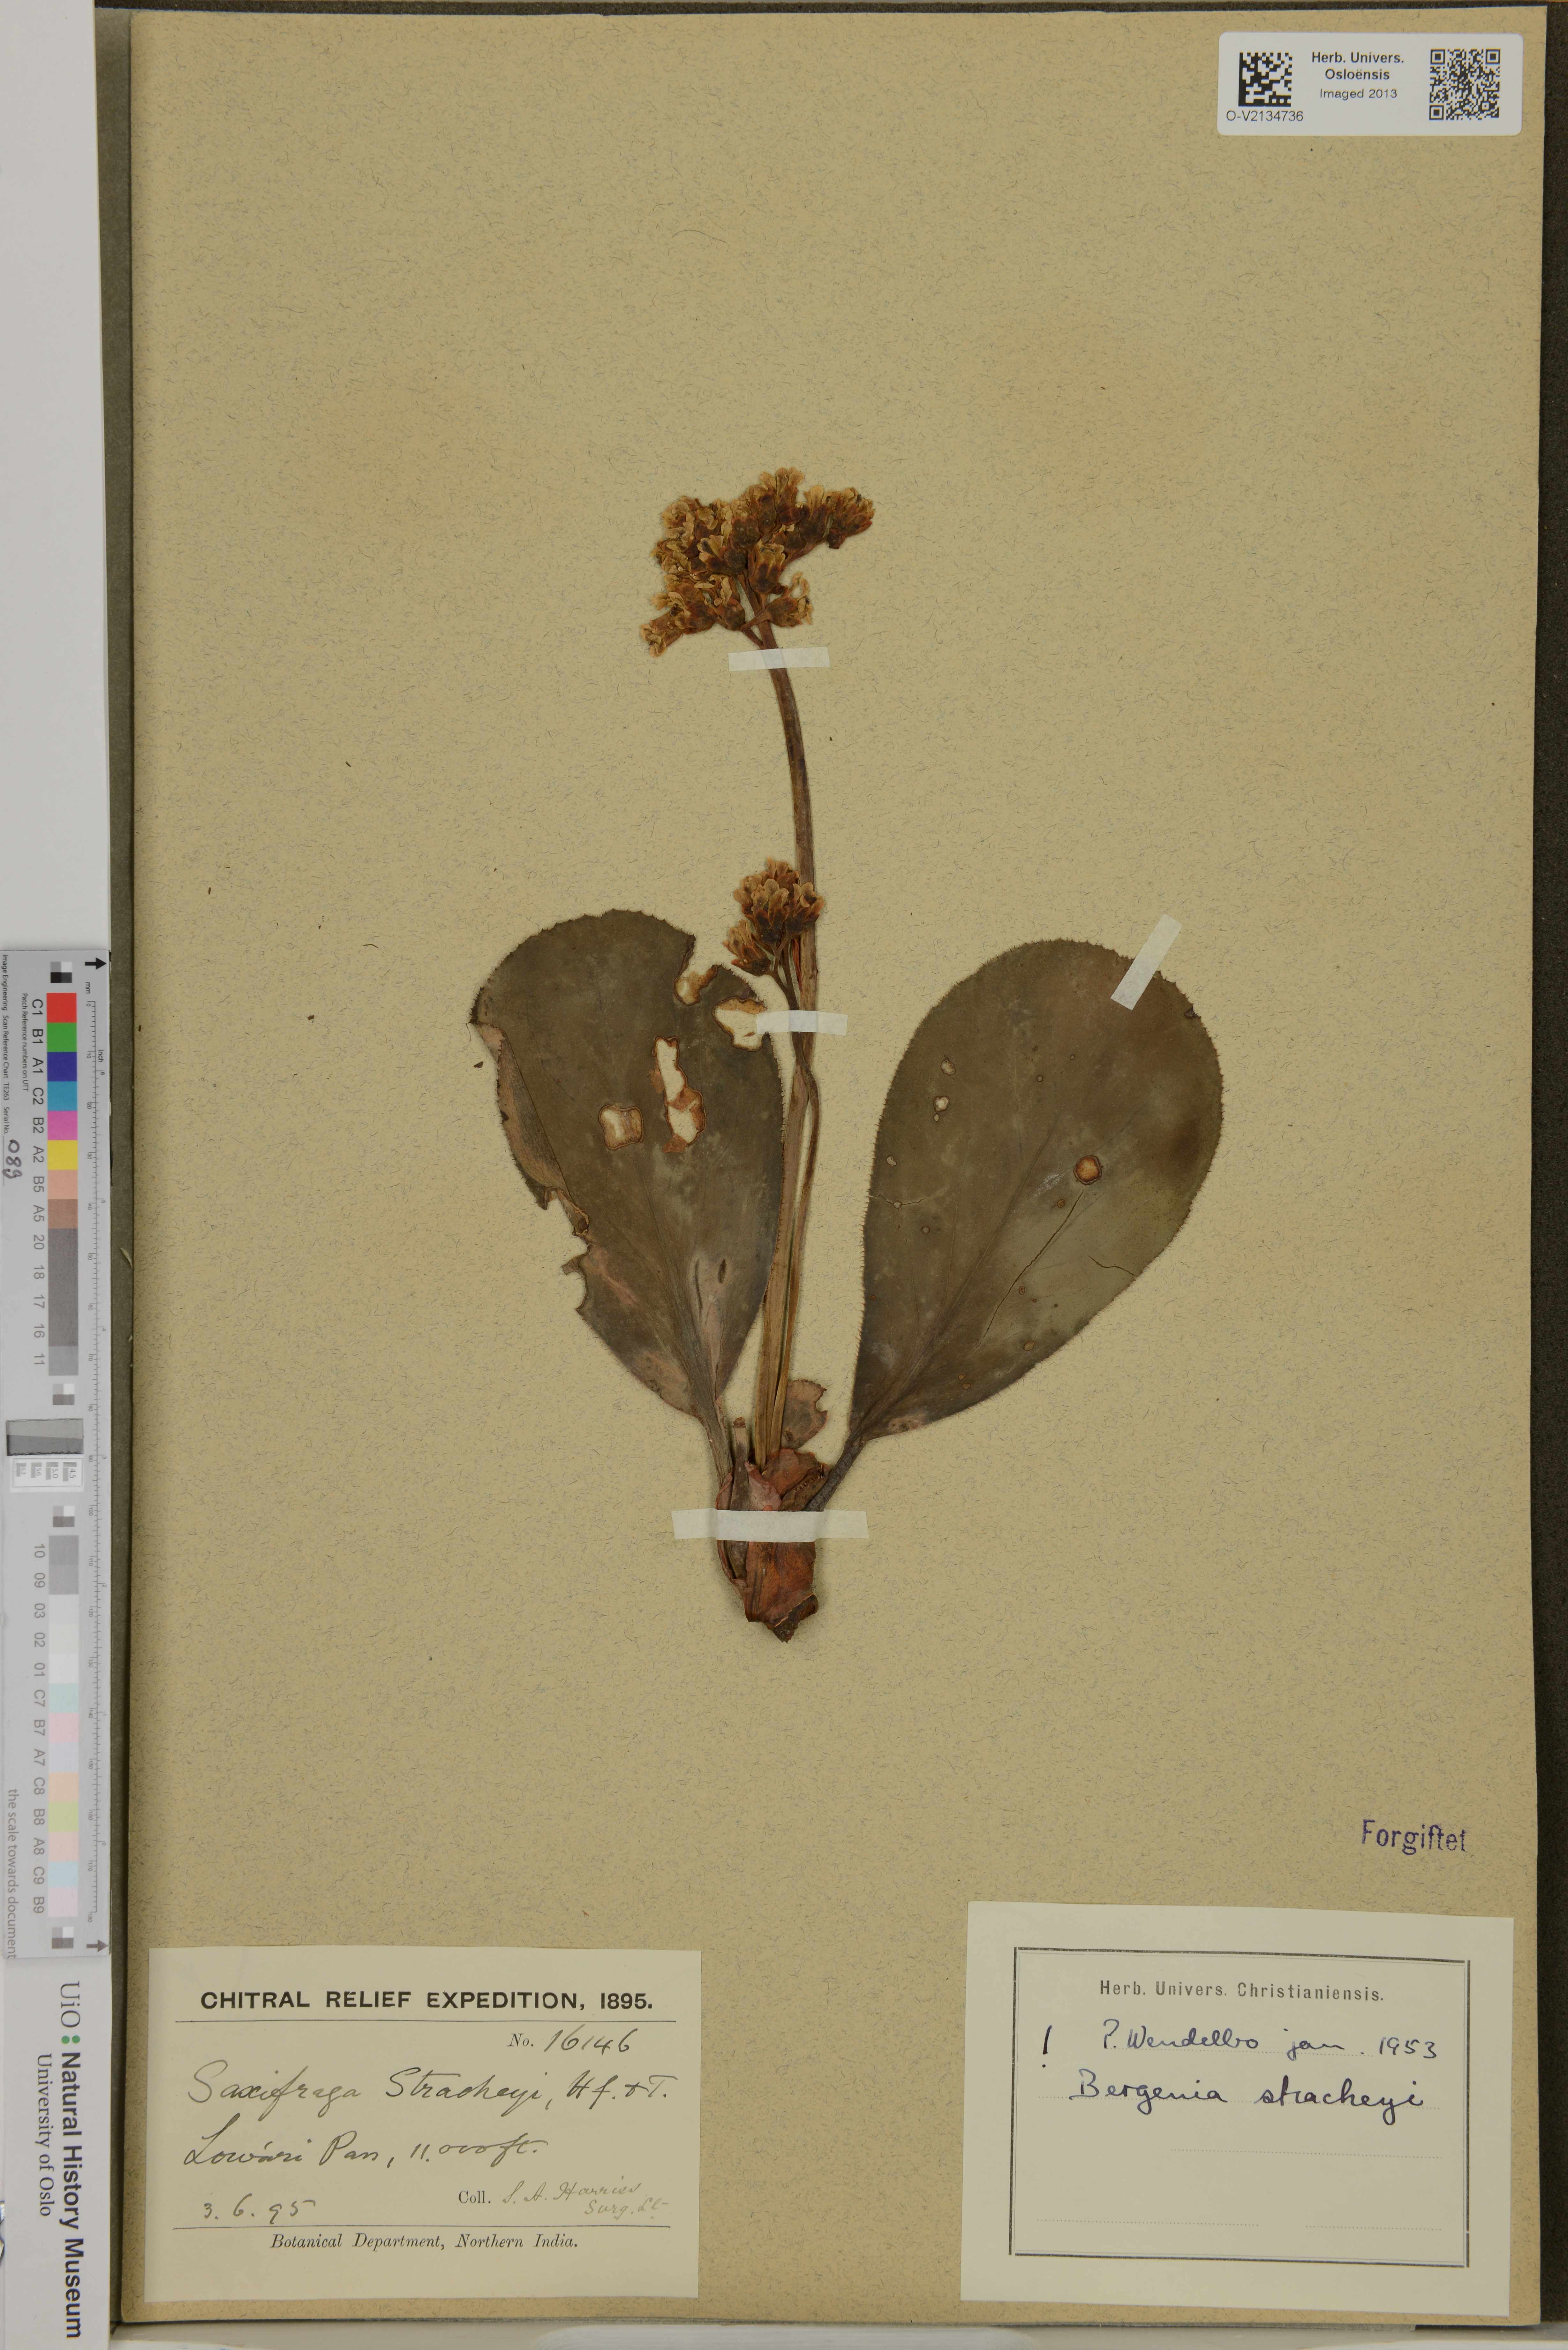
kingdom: Plantae
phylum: Tracheophyta
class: Magnoliopsida
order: Saxifragales
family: Saxifragaceae
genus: Bergenia
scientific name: Bergenia stracheyi
